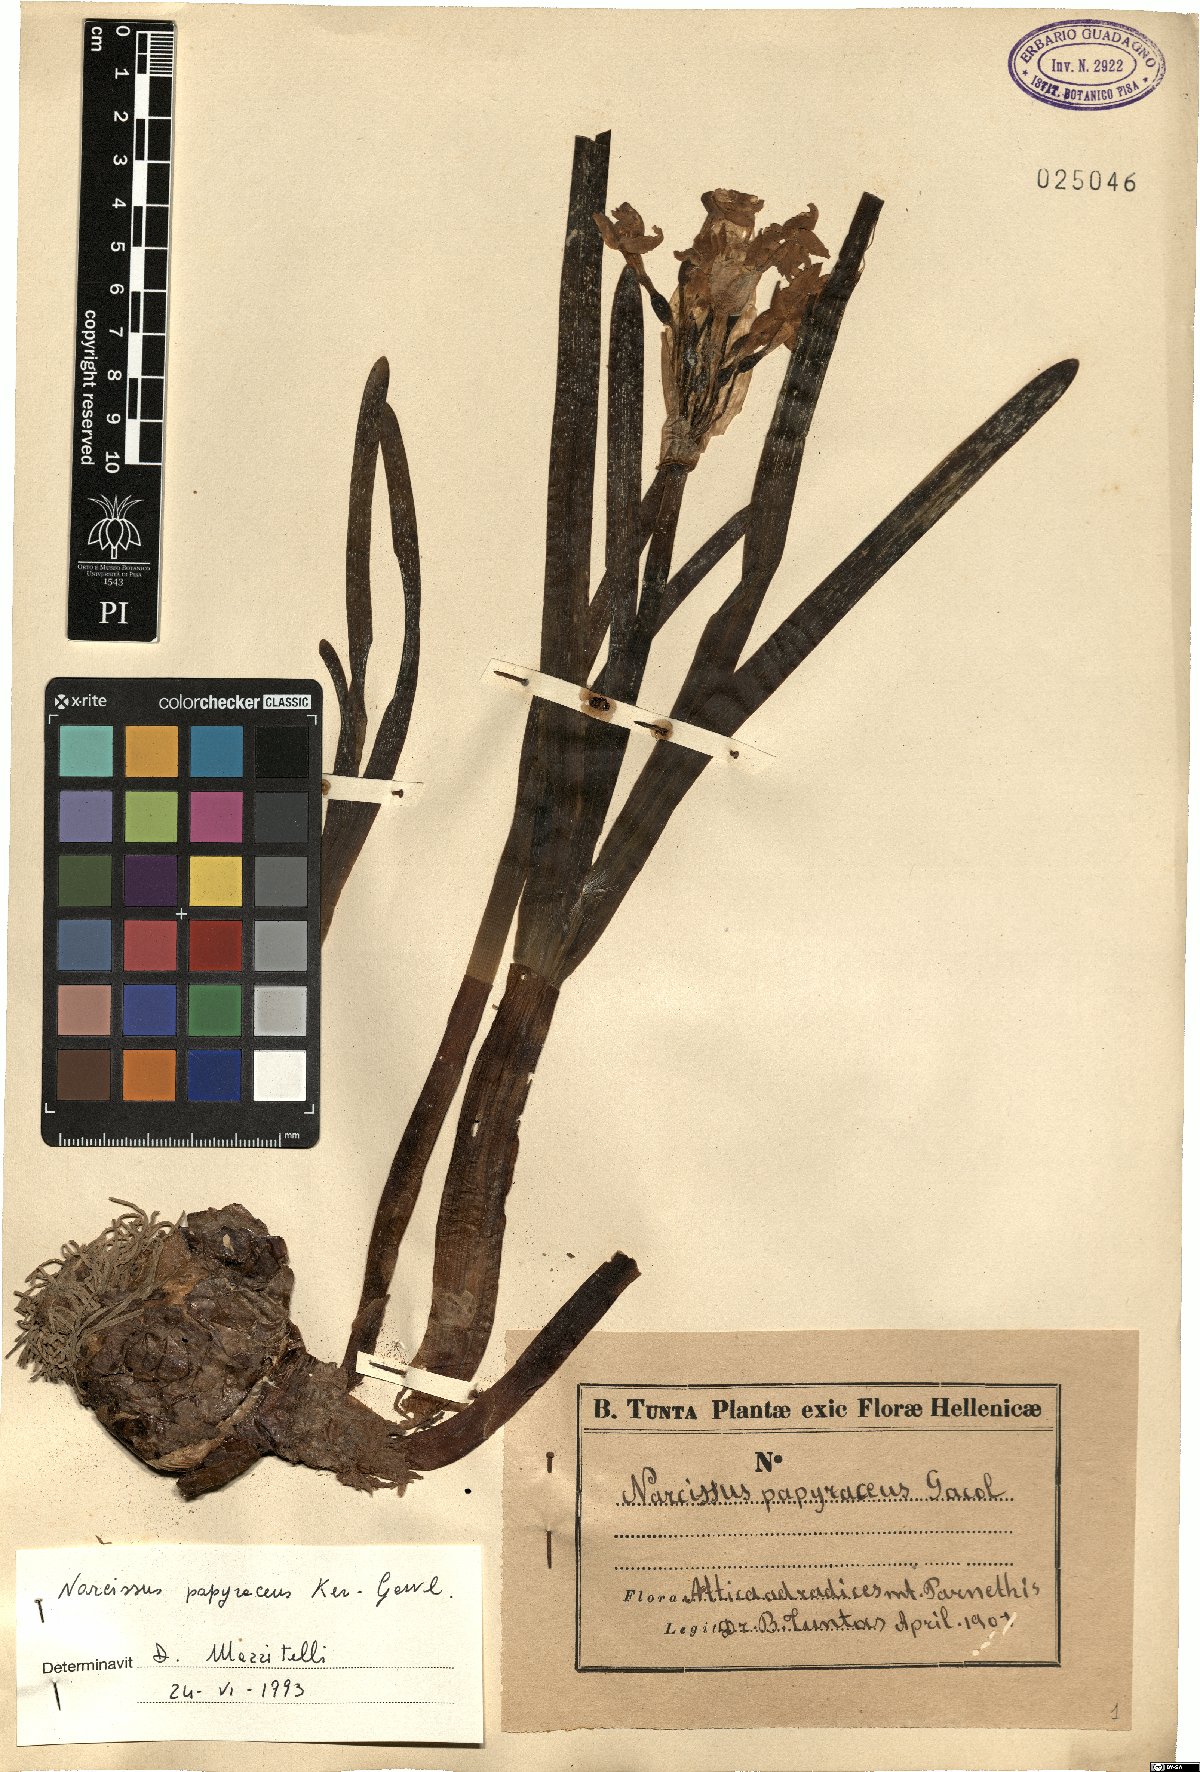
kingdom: Plantae
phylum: Tracheophyta
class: Liliopsida
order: Asparagales
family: Amaryllidaceae
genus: Narcissus
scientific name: Narcissus papyraceus
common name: Paper-white daffodil
